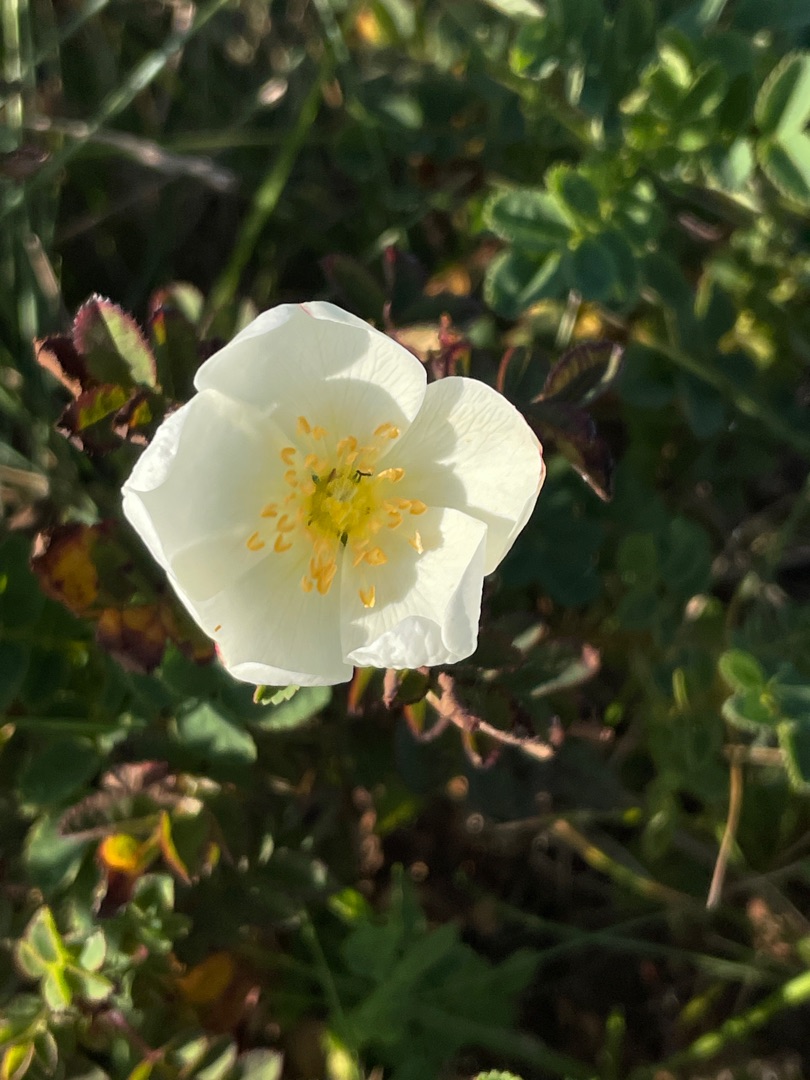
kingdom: Plantae
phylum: Tracheophyta
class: Magnoliopsida
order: Rosales
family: Rosaceae
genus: Rosa
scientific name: Rosa spinosissima
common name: Klit-rose
